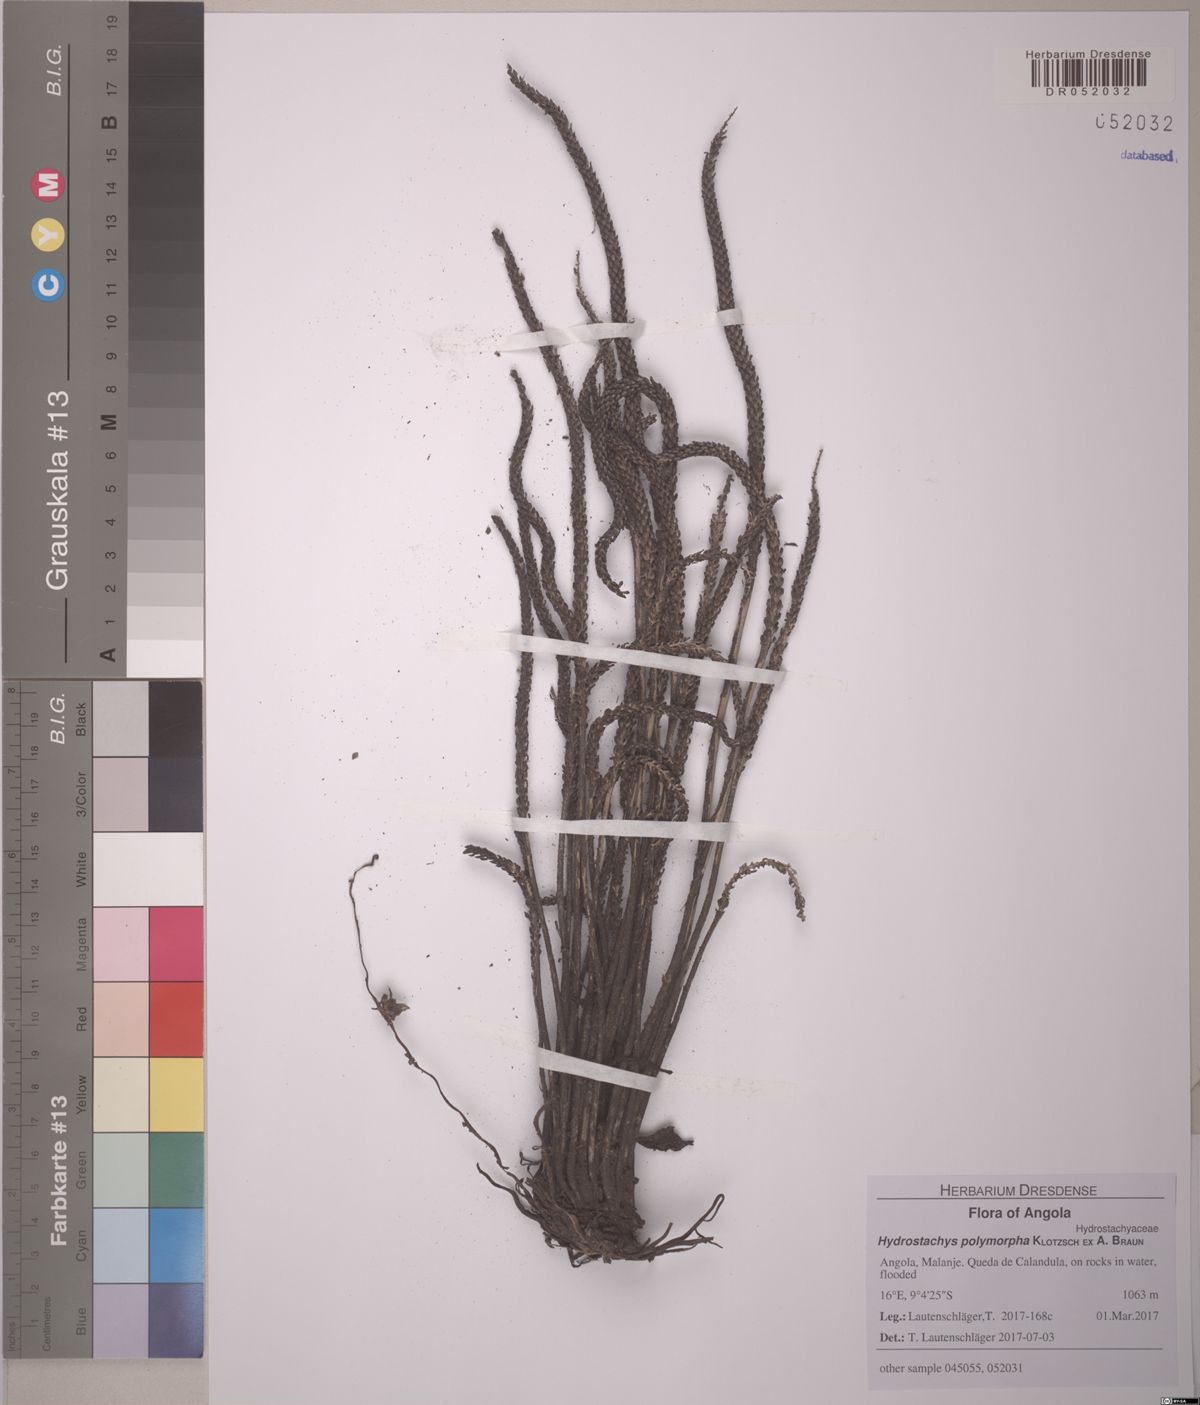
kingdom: Plantae
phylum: Tracheophyta
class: Magnoliopsida
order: Cornales
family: Hydrostachyaceae
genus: Hydrostachys
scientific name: Hydrostachys polymorpha
